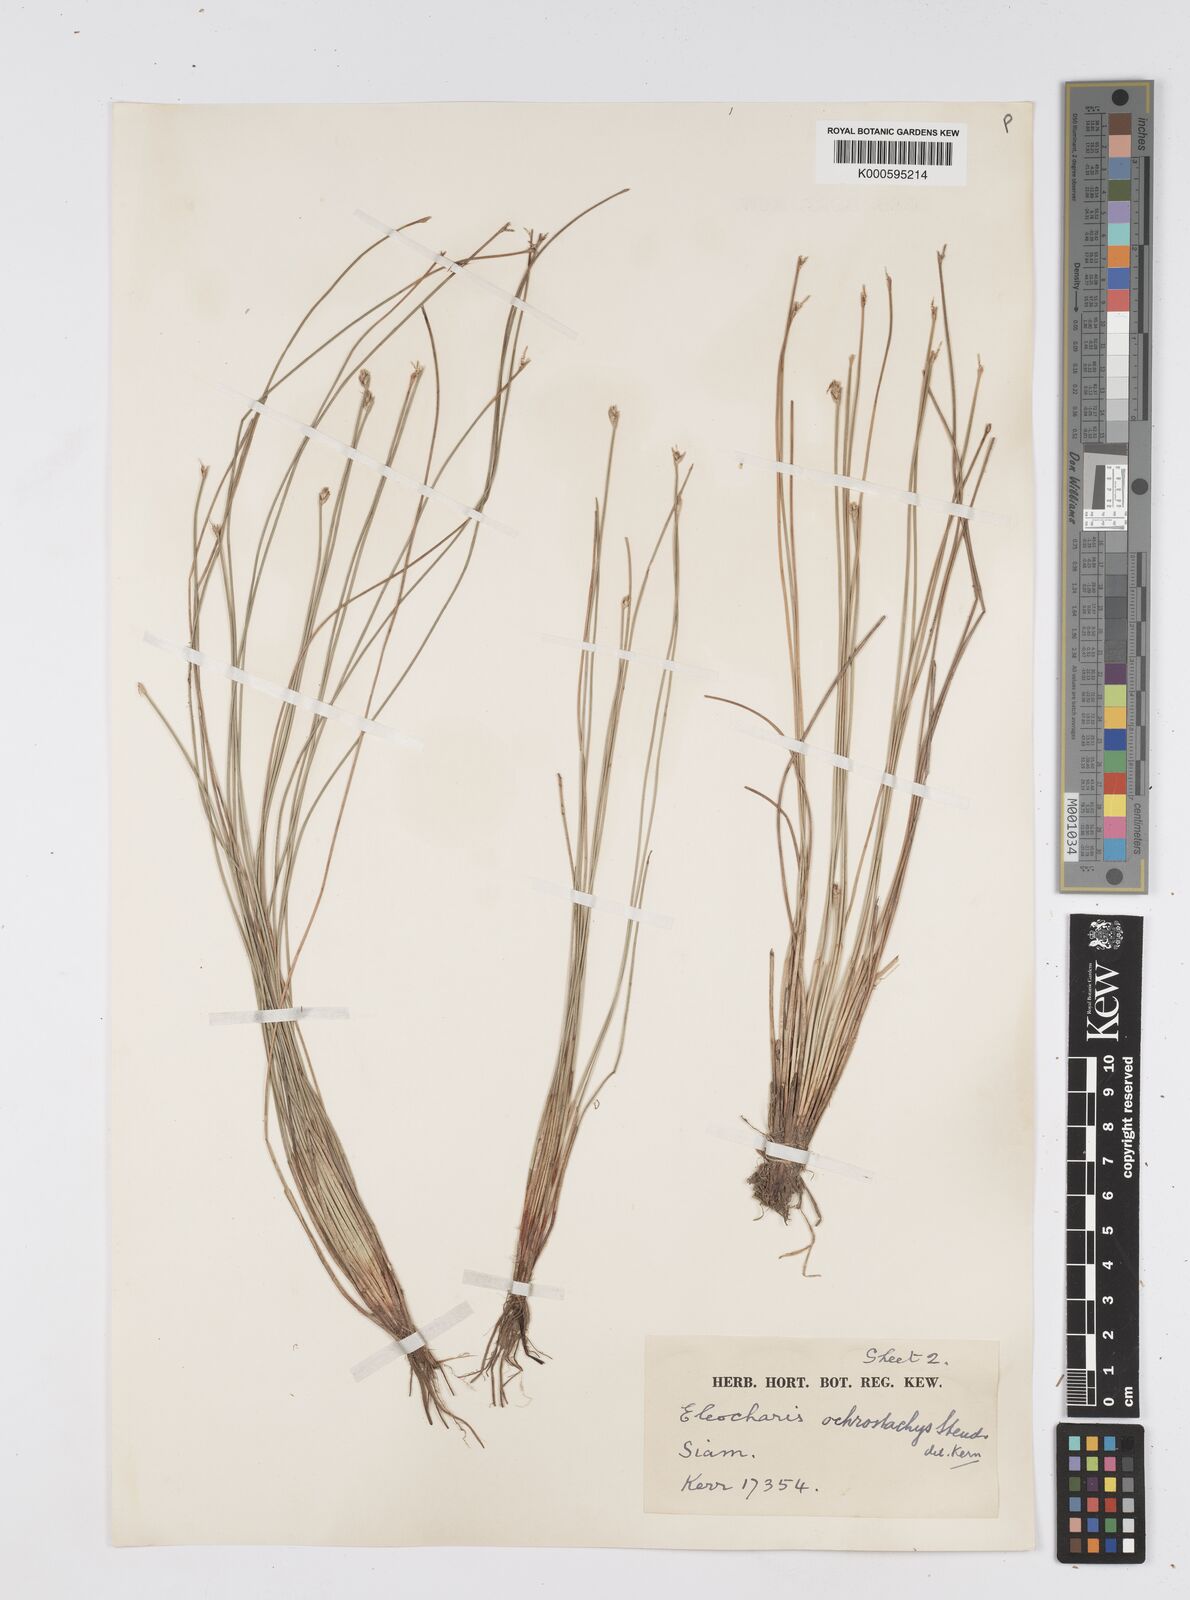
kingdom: Plantae
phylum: Tracheophyta
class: Liliopsida
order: Poales
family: Cyperaceae
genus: Eleocharis
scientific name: Eleocharis ochrostachys
